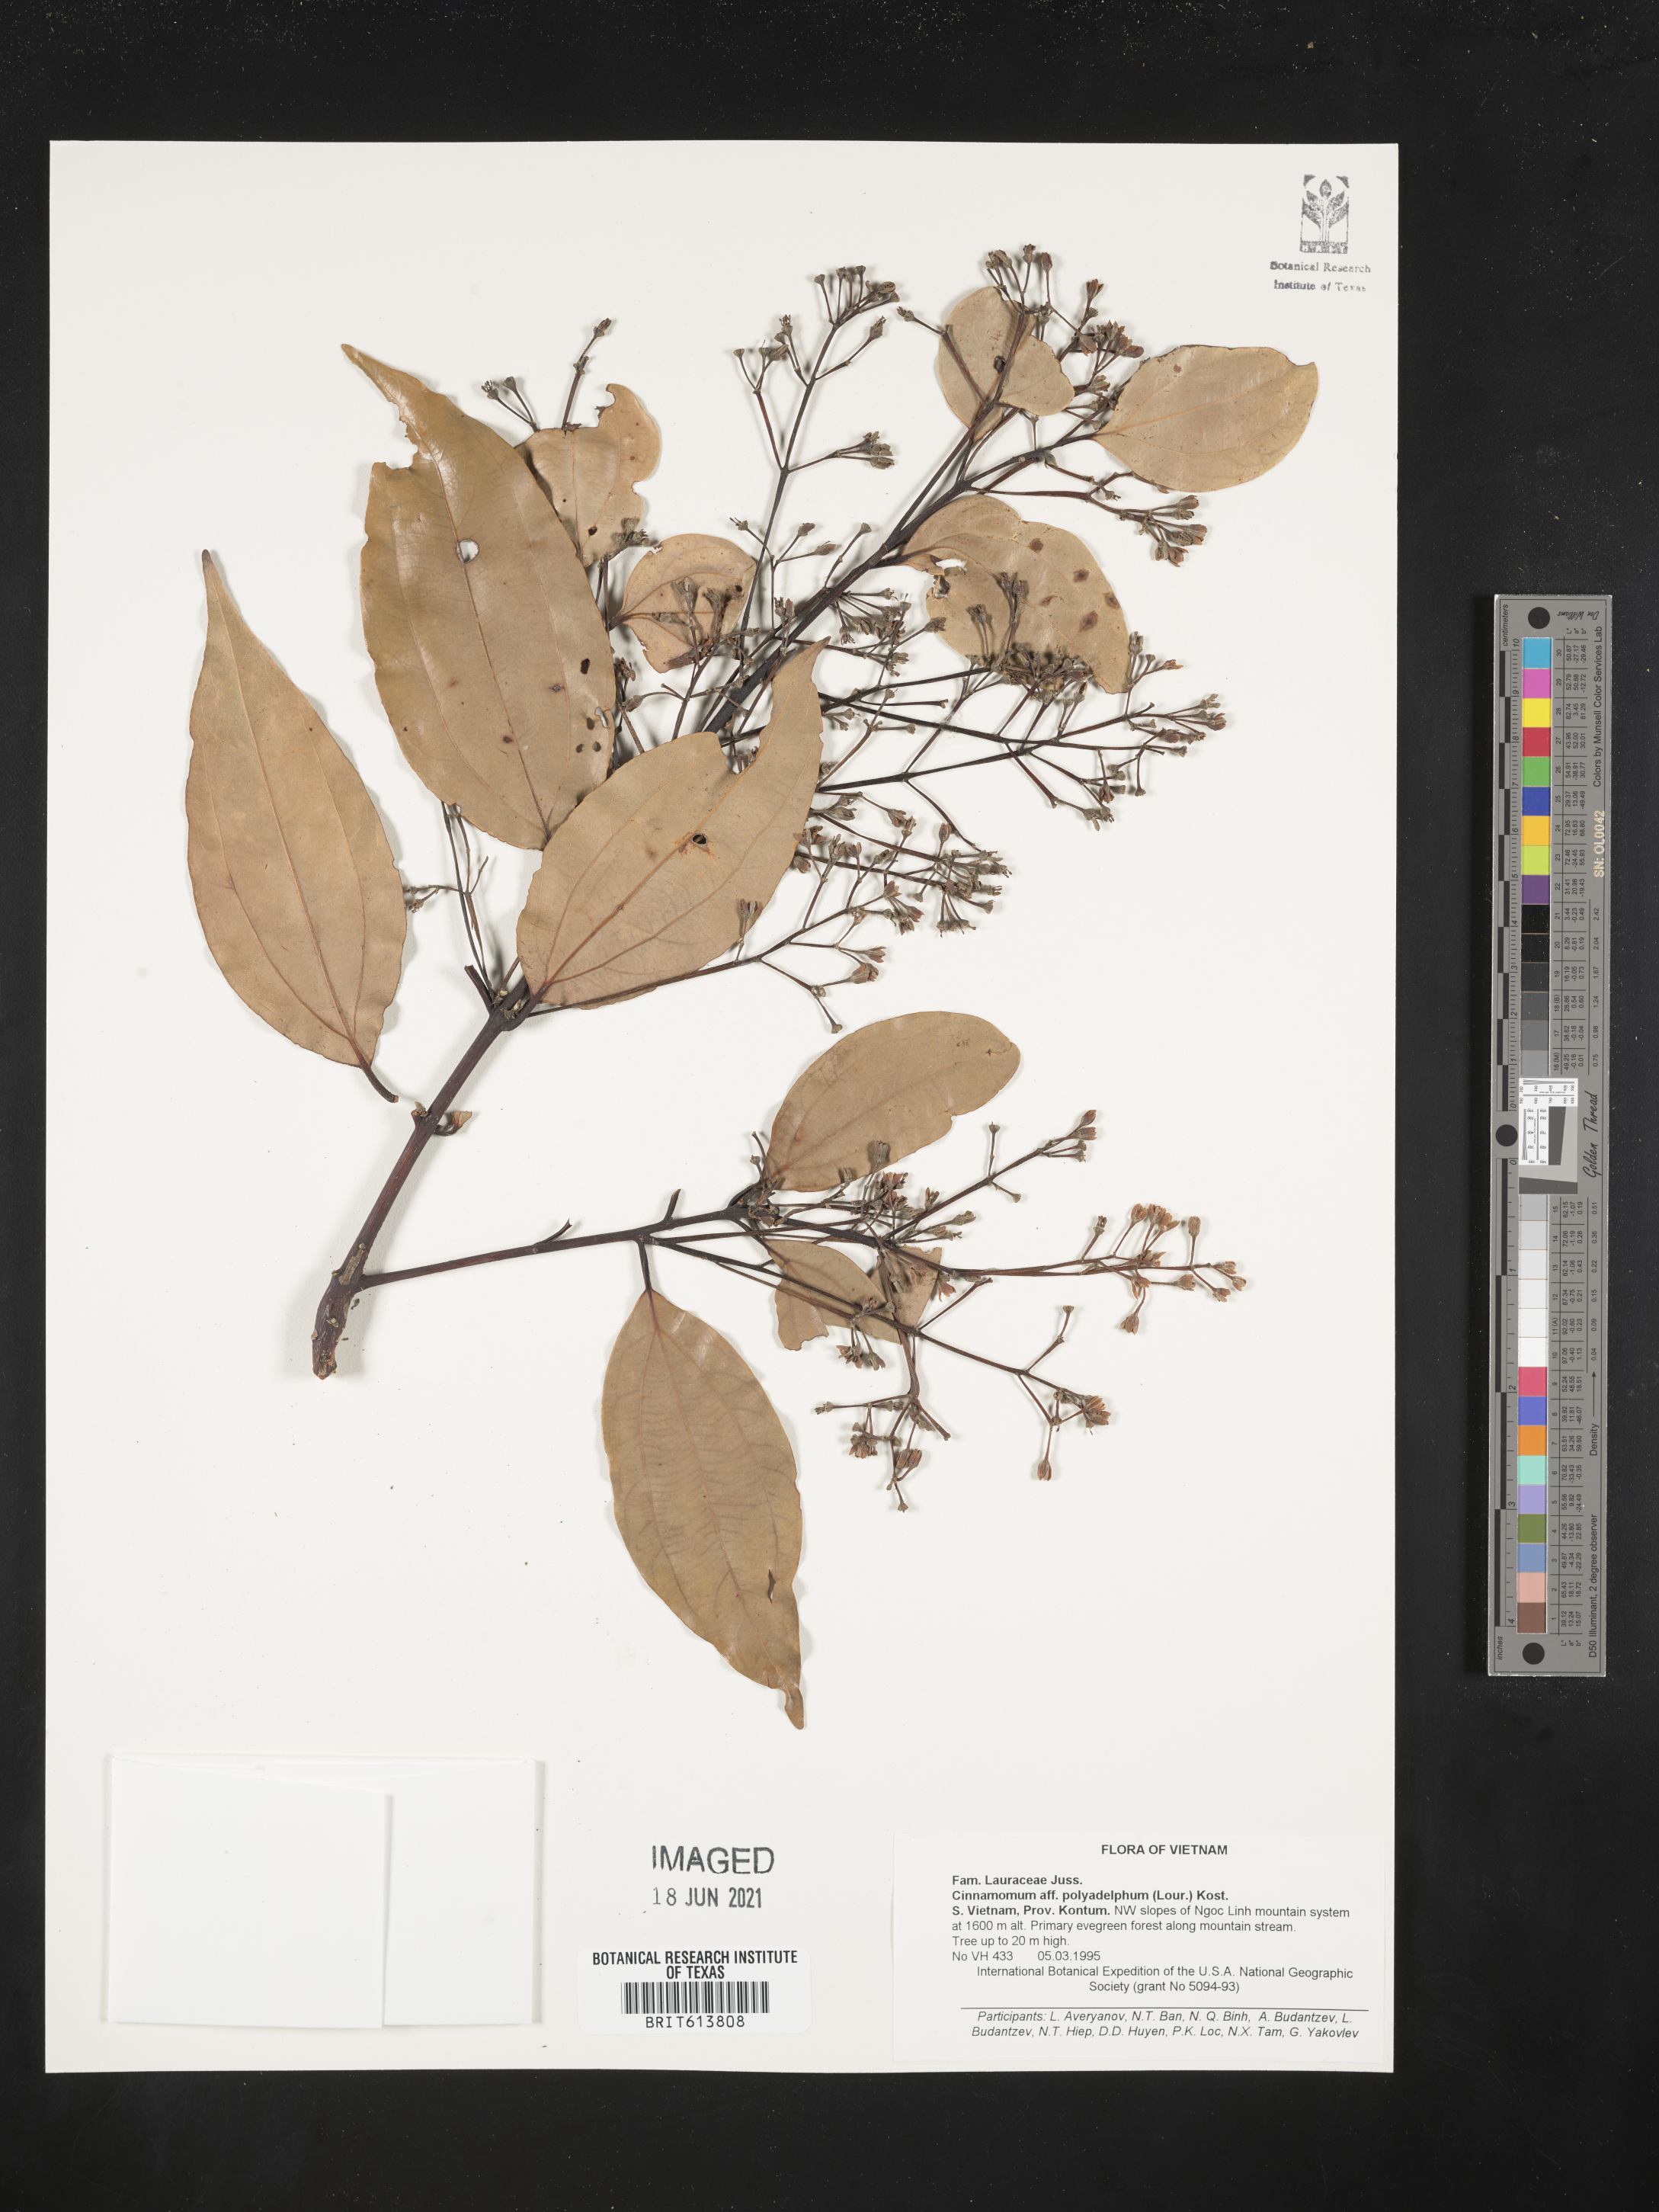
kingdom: Plantae
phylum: Tracheophyta
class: Magnoliopsida
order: Laurales
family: Lauraceae
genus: Cinnamomum
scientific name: Cinnamomum polyadelphum
